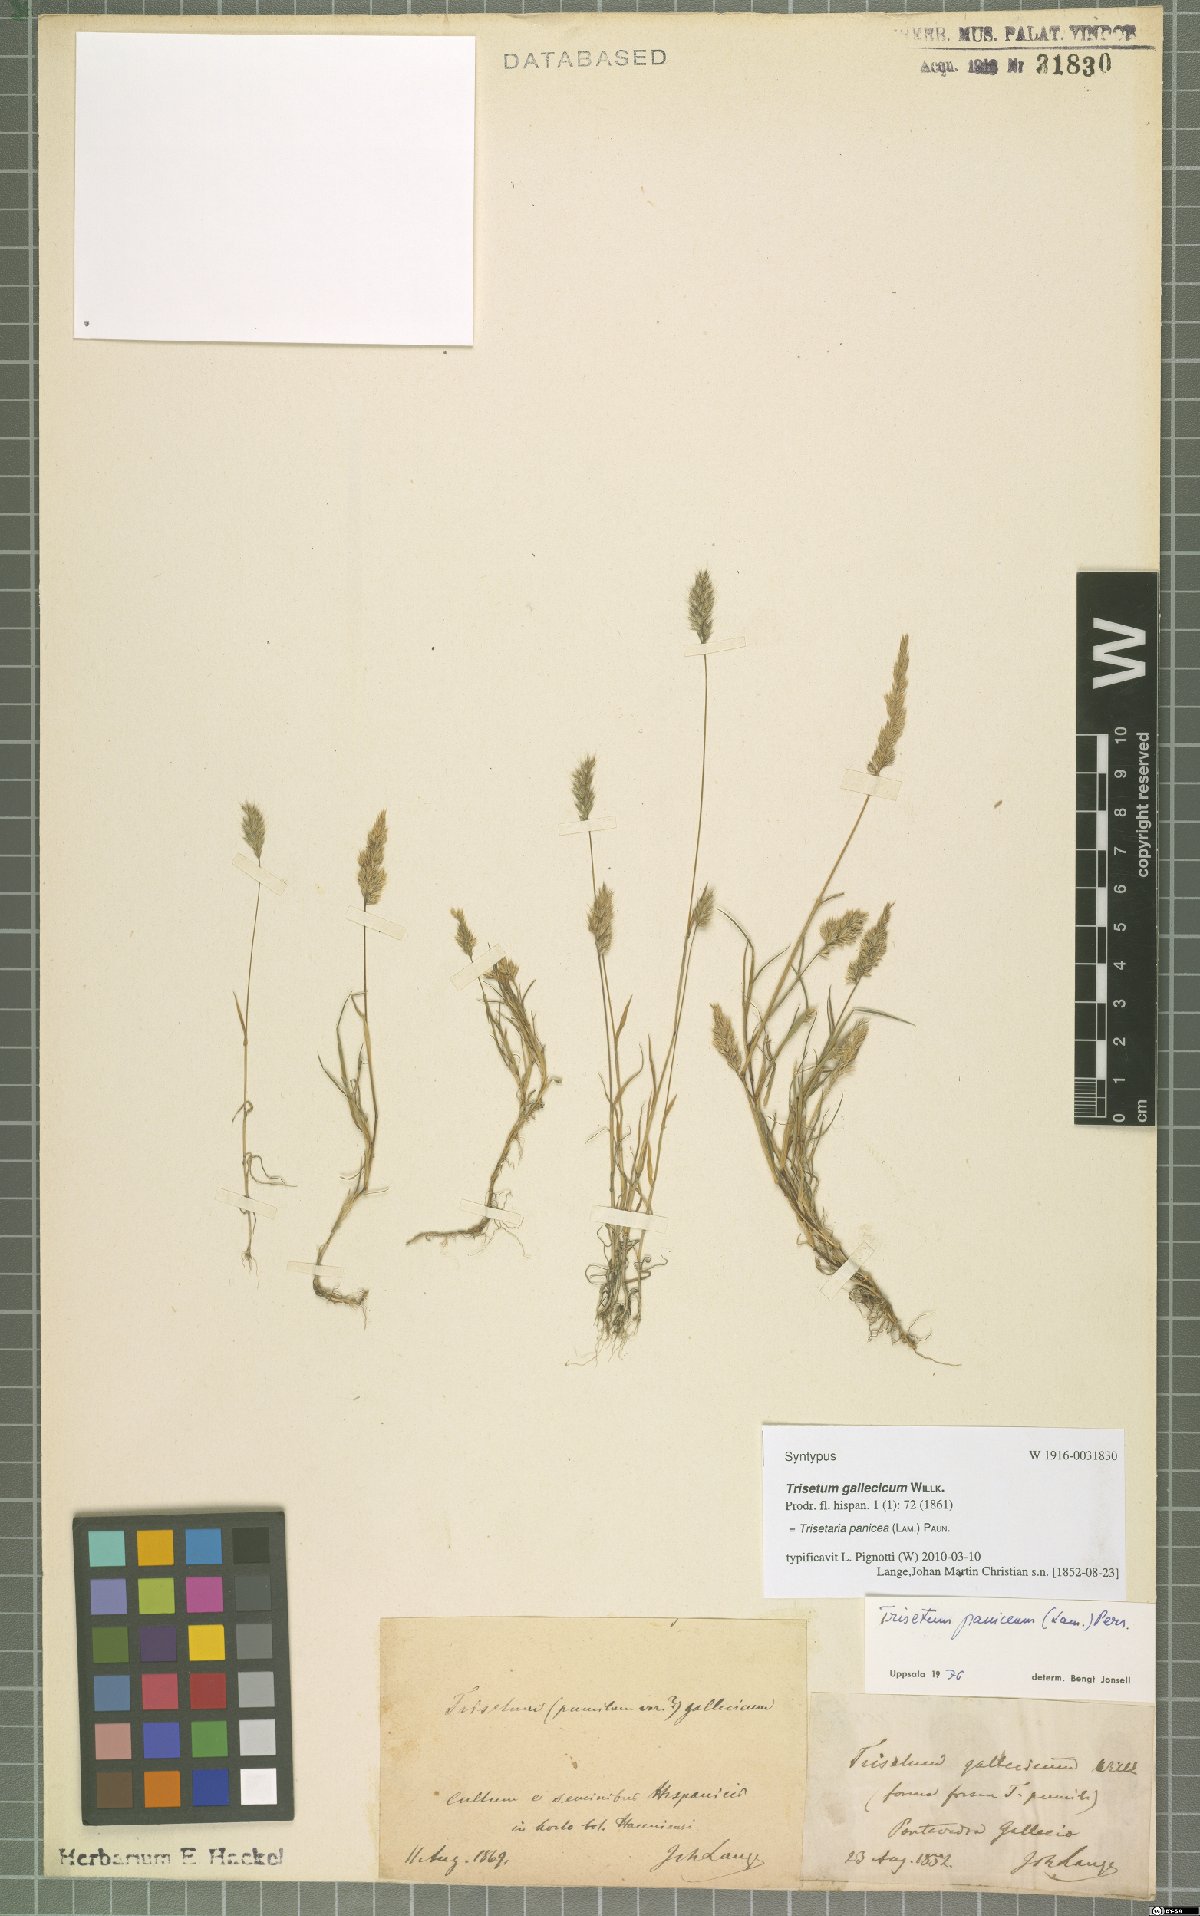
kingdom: Plantae
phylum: Tracheophyta
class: Liliopsida
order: Poales
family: Poaceae
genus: Trisetaria
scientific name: Trisetaria panicea
